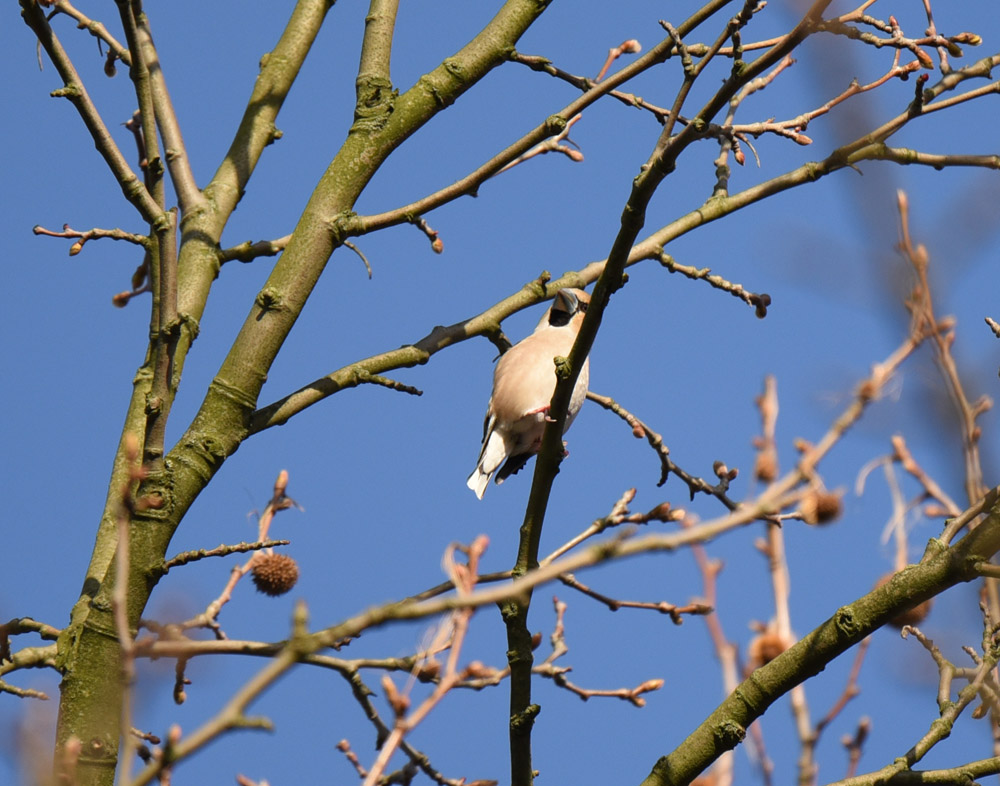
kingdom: Animalia
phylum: Chordata
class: Aves
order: Passeriformes
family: Fringillidae
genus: Coccothraustes
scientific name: Coccothraustes coccothraustes
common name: Hawfinch
